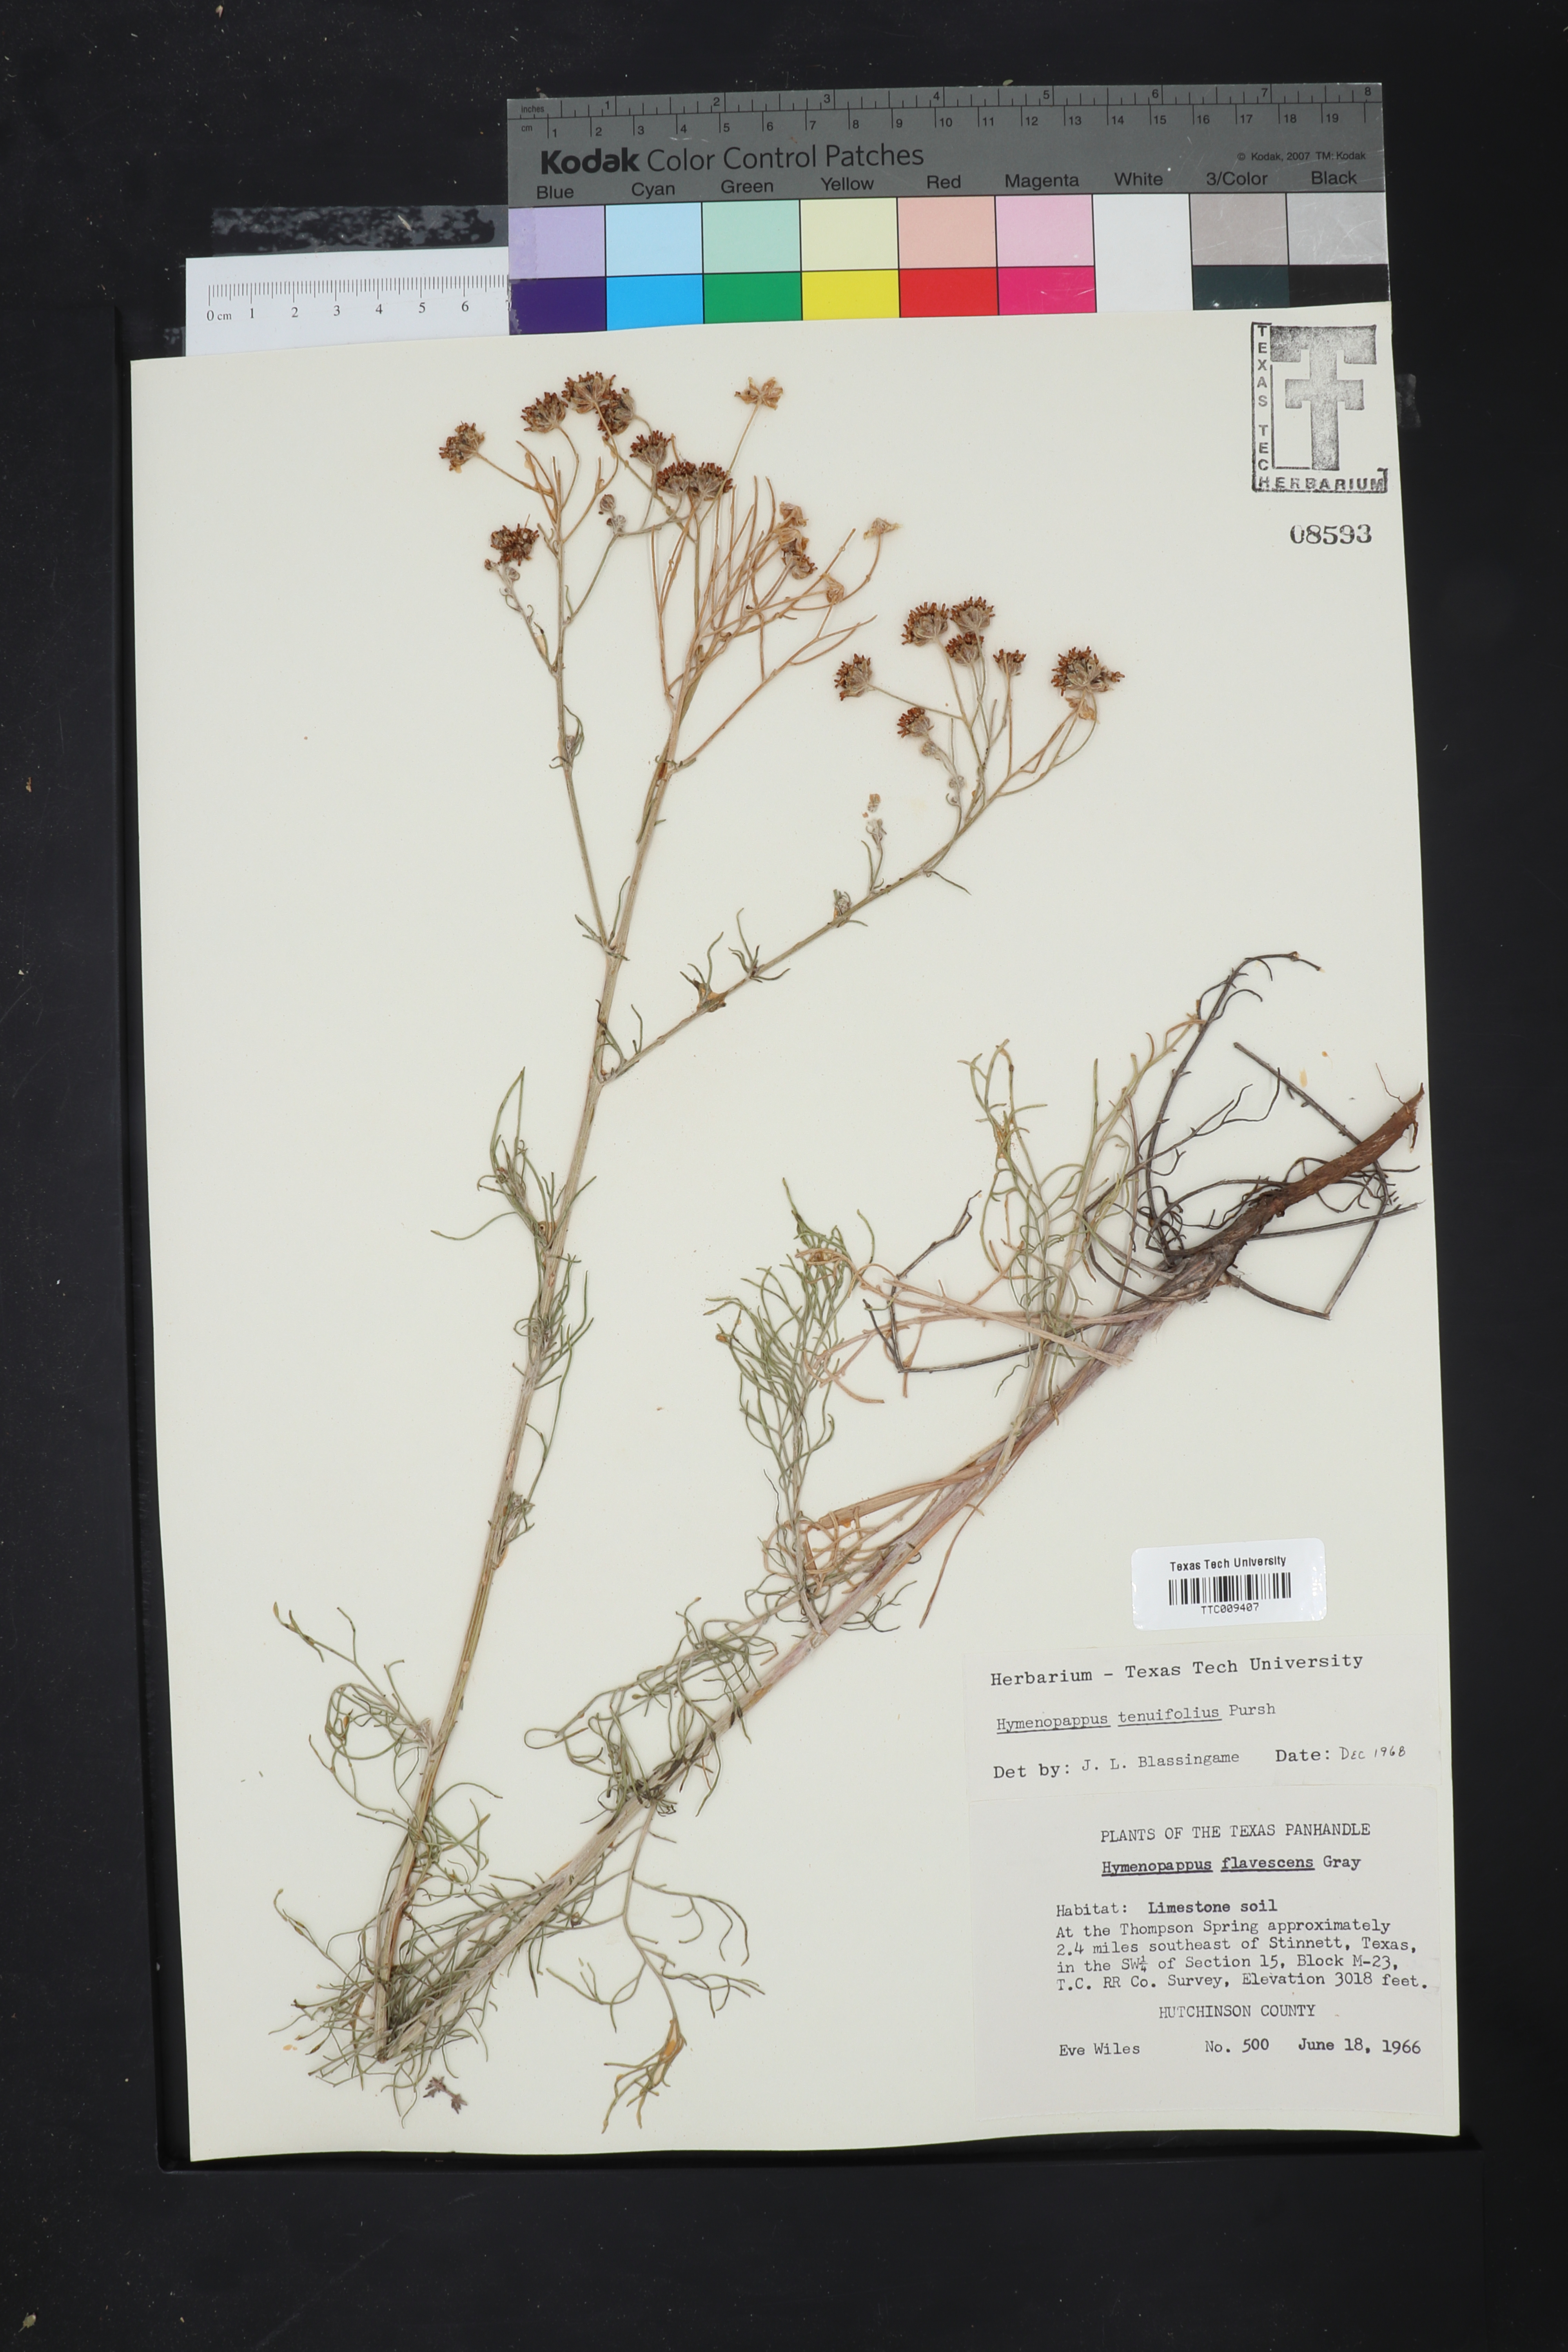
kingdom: Plantae
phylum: Tracheophyta
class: Magnoliopsida
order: Asterales
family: Asteraceae
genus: Hymenopappus
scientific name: Hymenopappus tenuifolius
